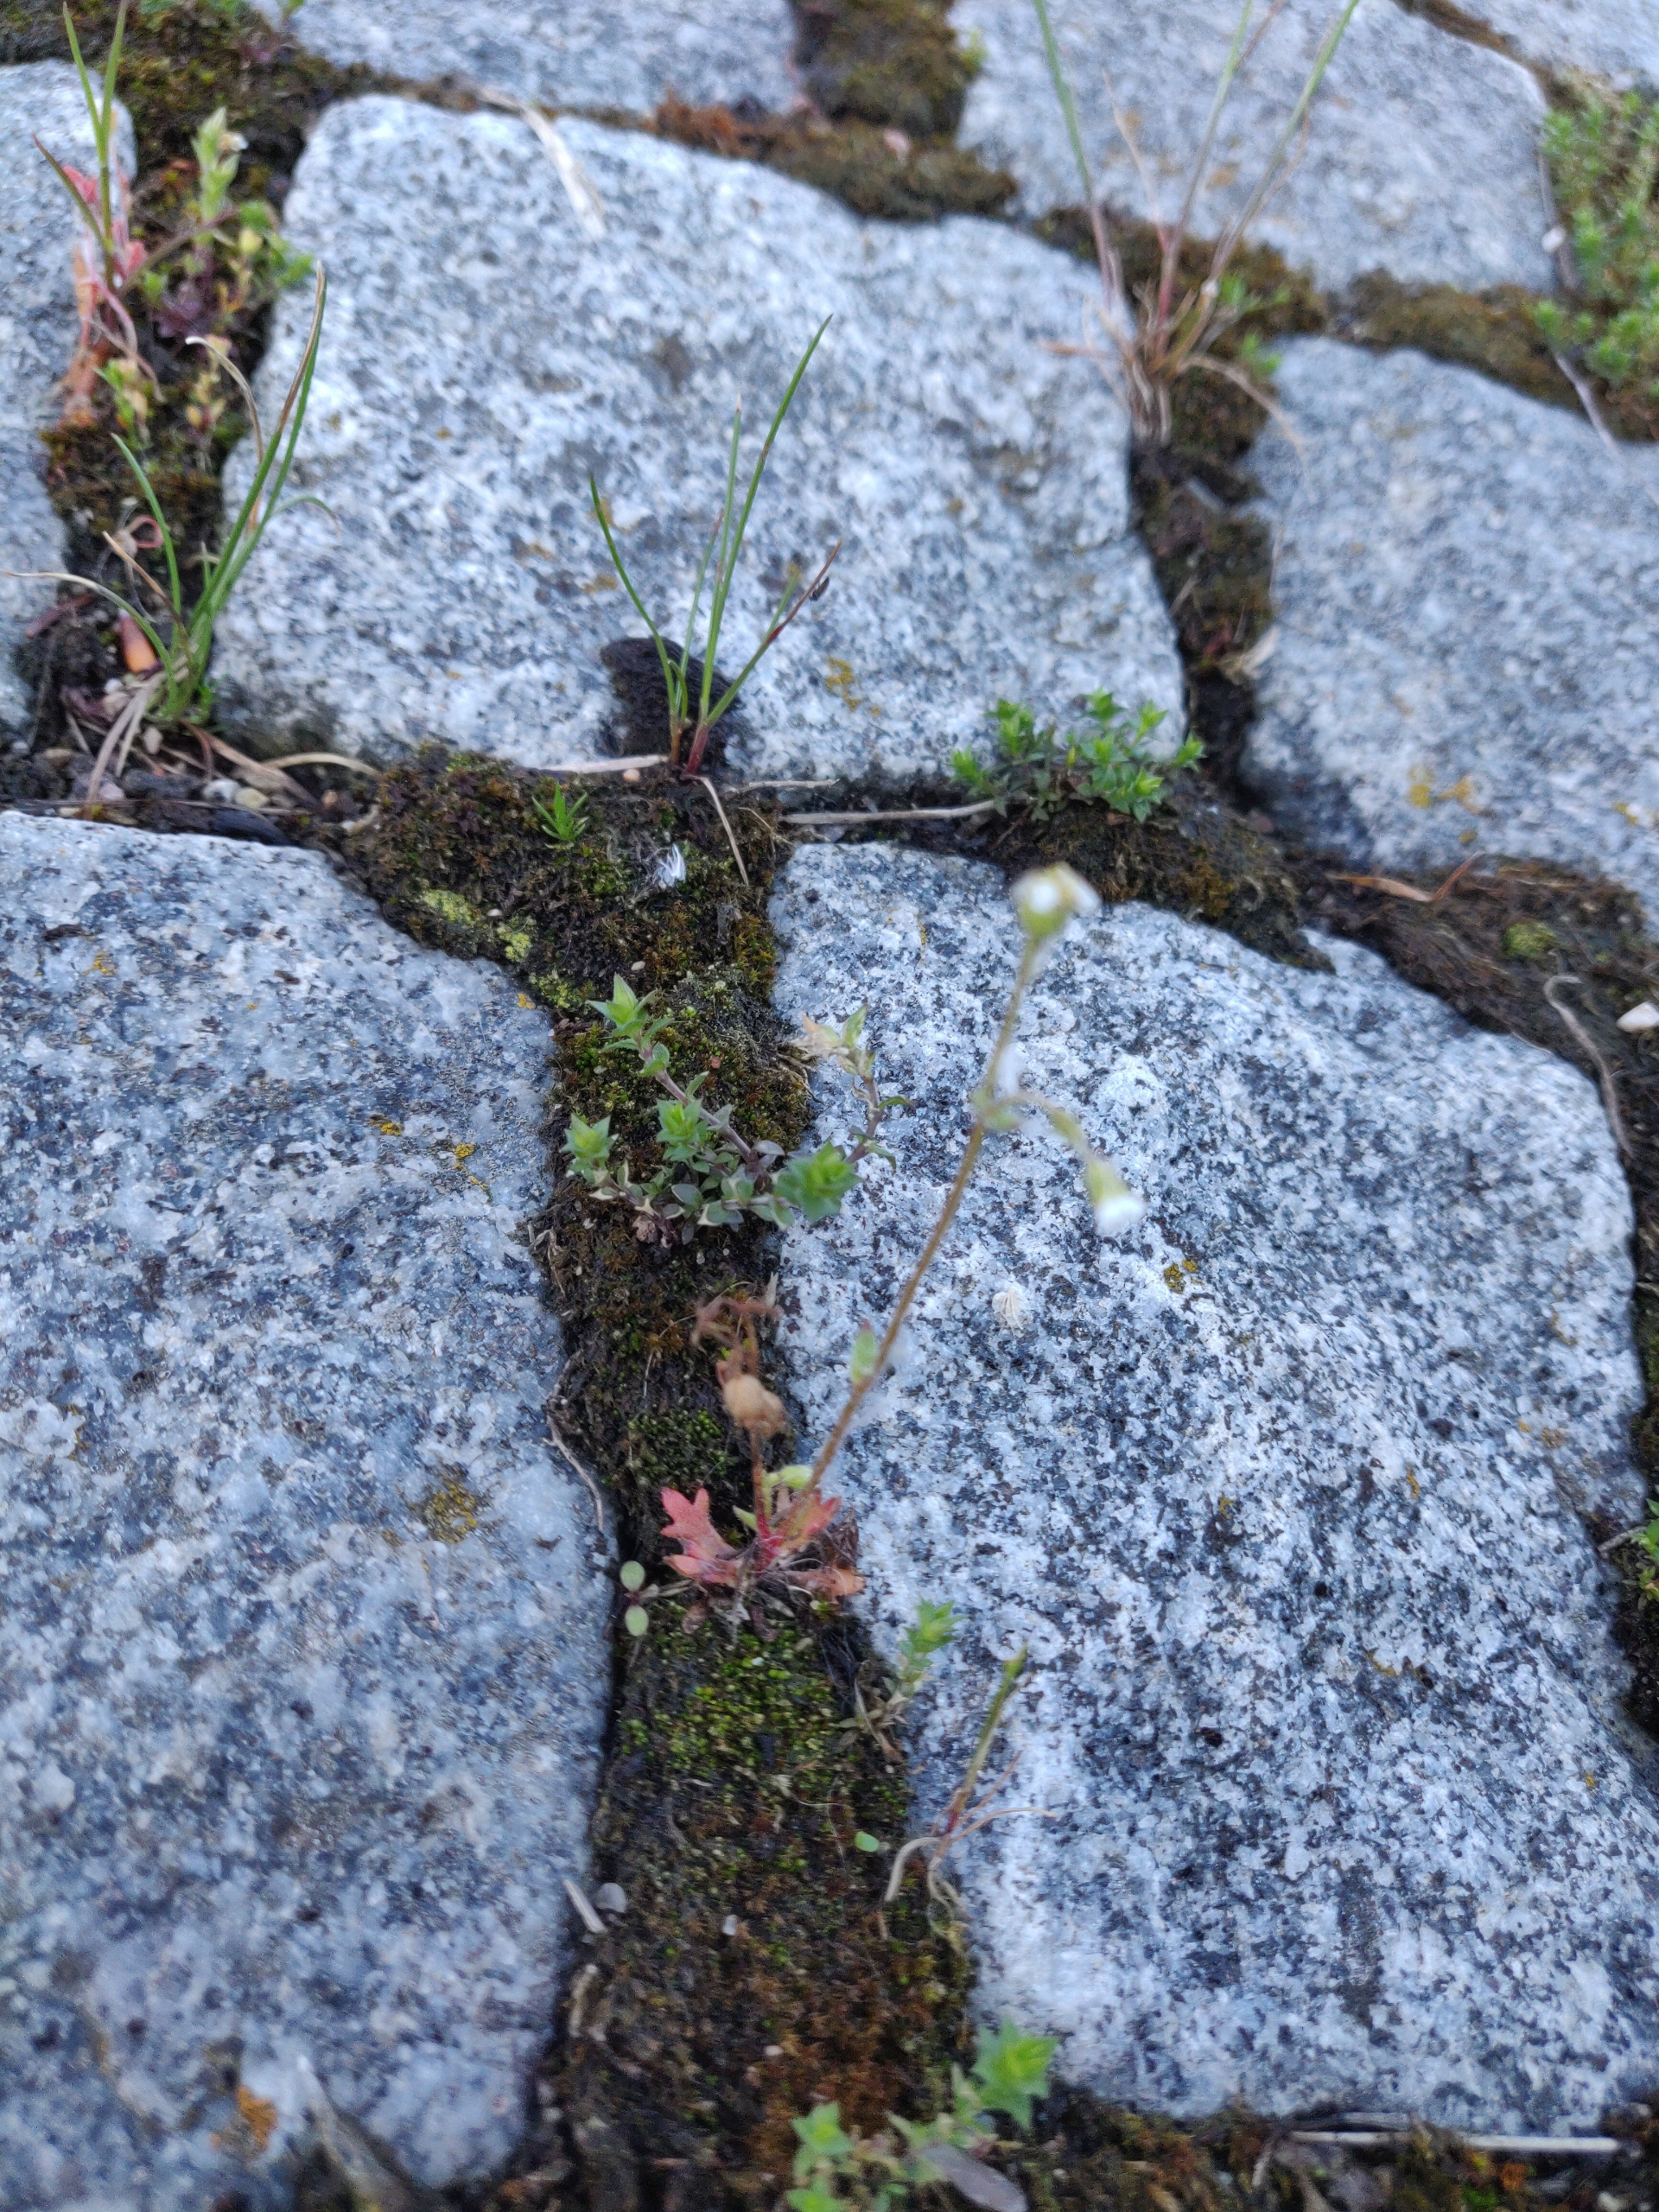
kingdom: Plantae
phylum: Tracheophyta
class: Magnoliopsida
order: Saxifragales
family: Saxifragaceae
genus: Saxifraga
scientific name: Saxifraga tridactylites
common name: Trekløft-stenbræk
